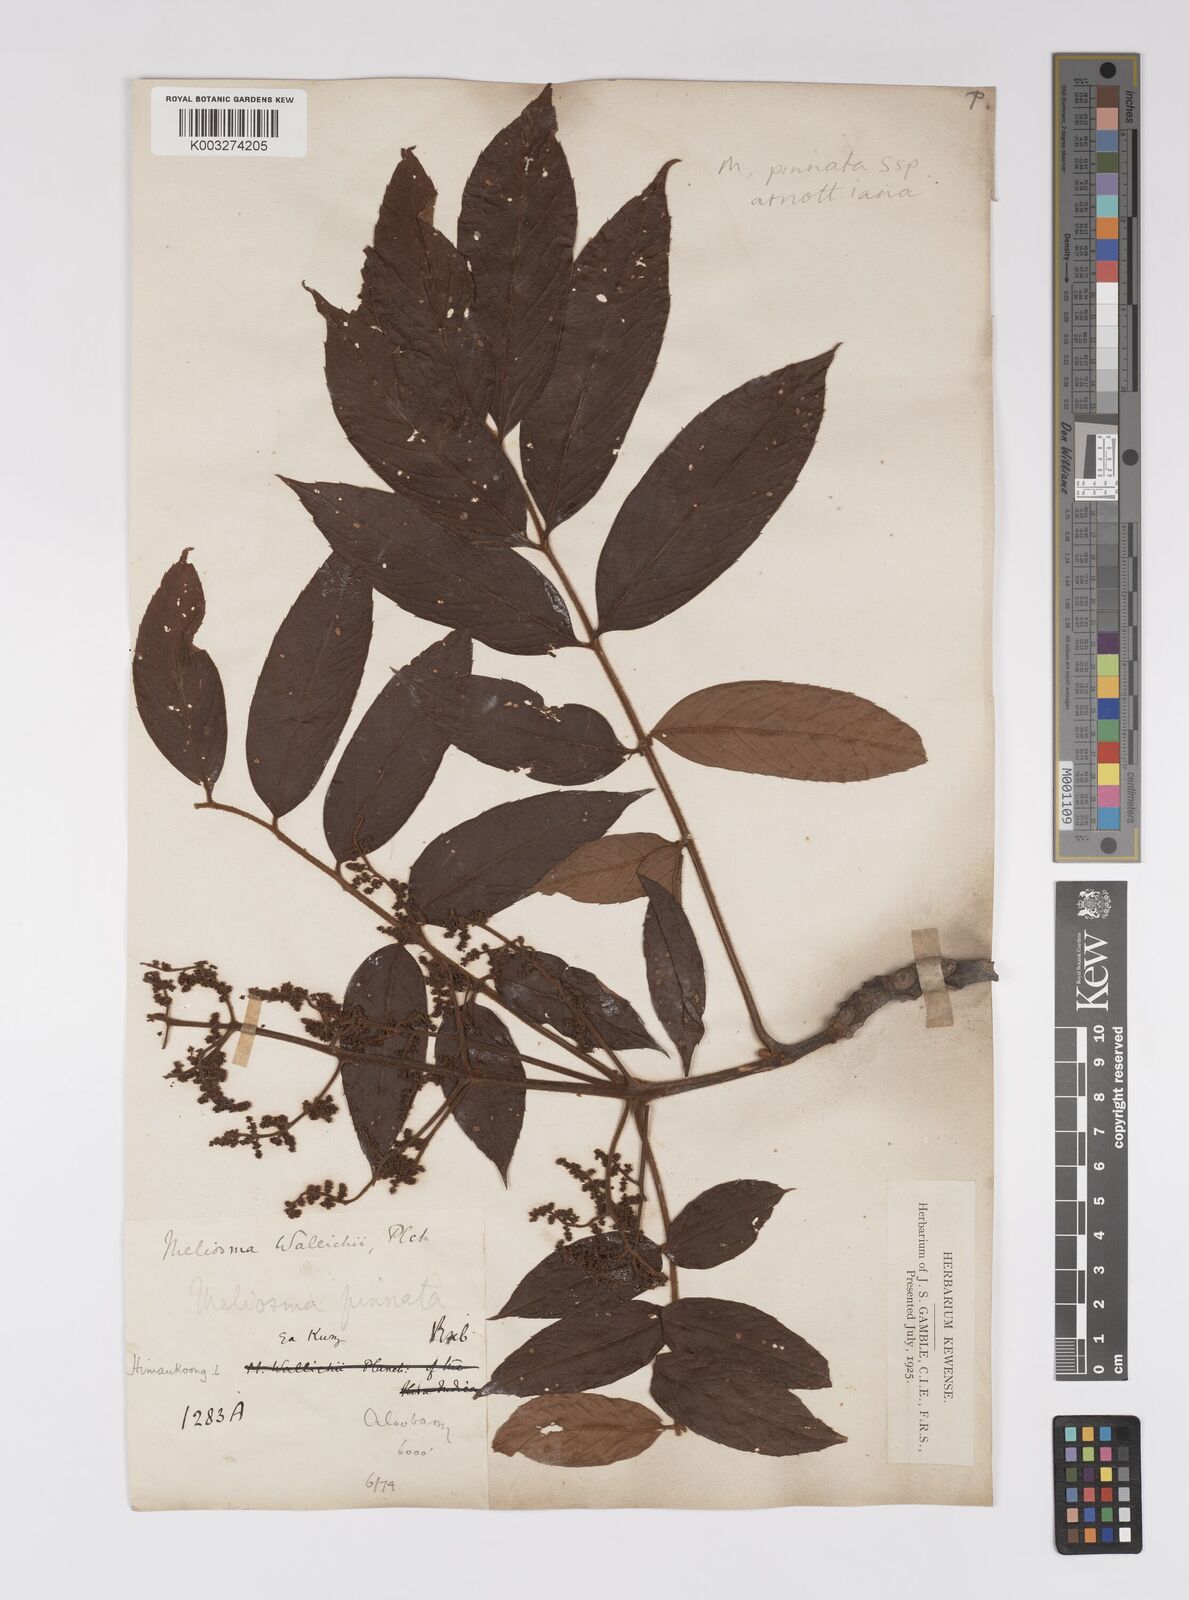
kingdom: Plantae
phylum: Tracheophyta
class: Magnoliopsida
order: Proteales
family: Sabiaceae
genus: Meliosma
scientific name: Meliosma rhoifolia
